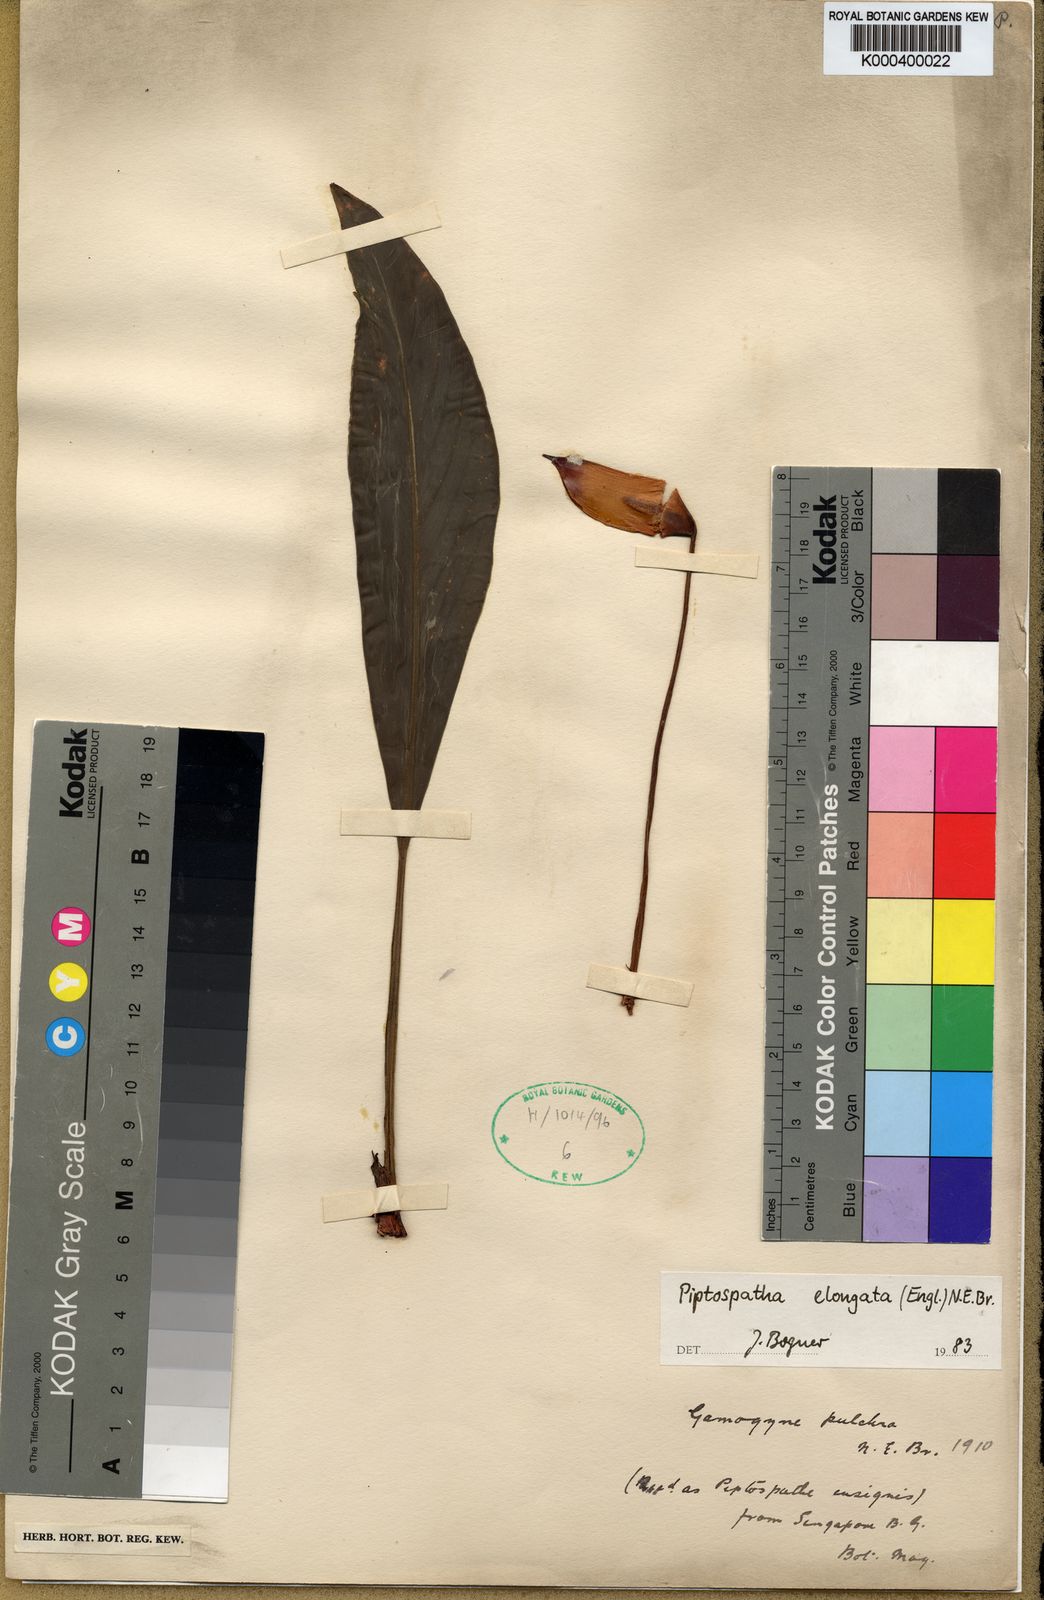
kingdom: Plantae
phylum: Tracheophyta
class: Liliopsida
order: Alismatales
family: Araceae
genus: Rhynchopyle
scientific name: Rhynchopyle elongata
